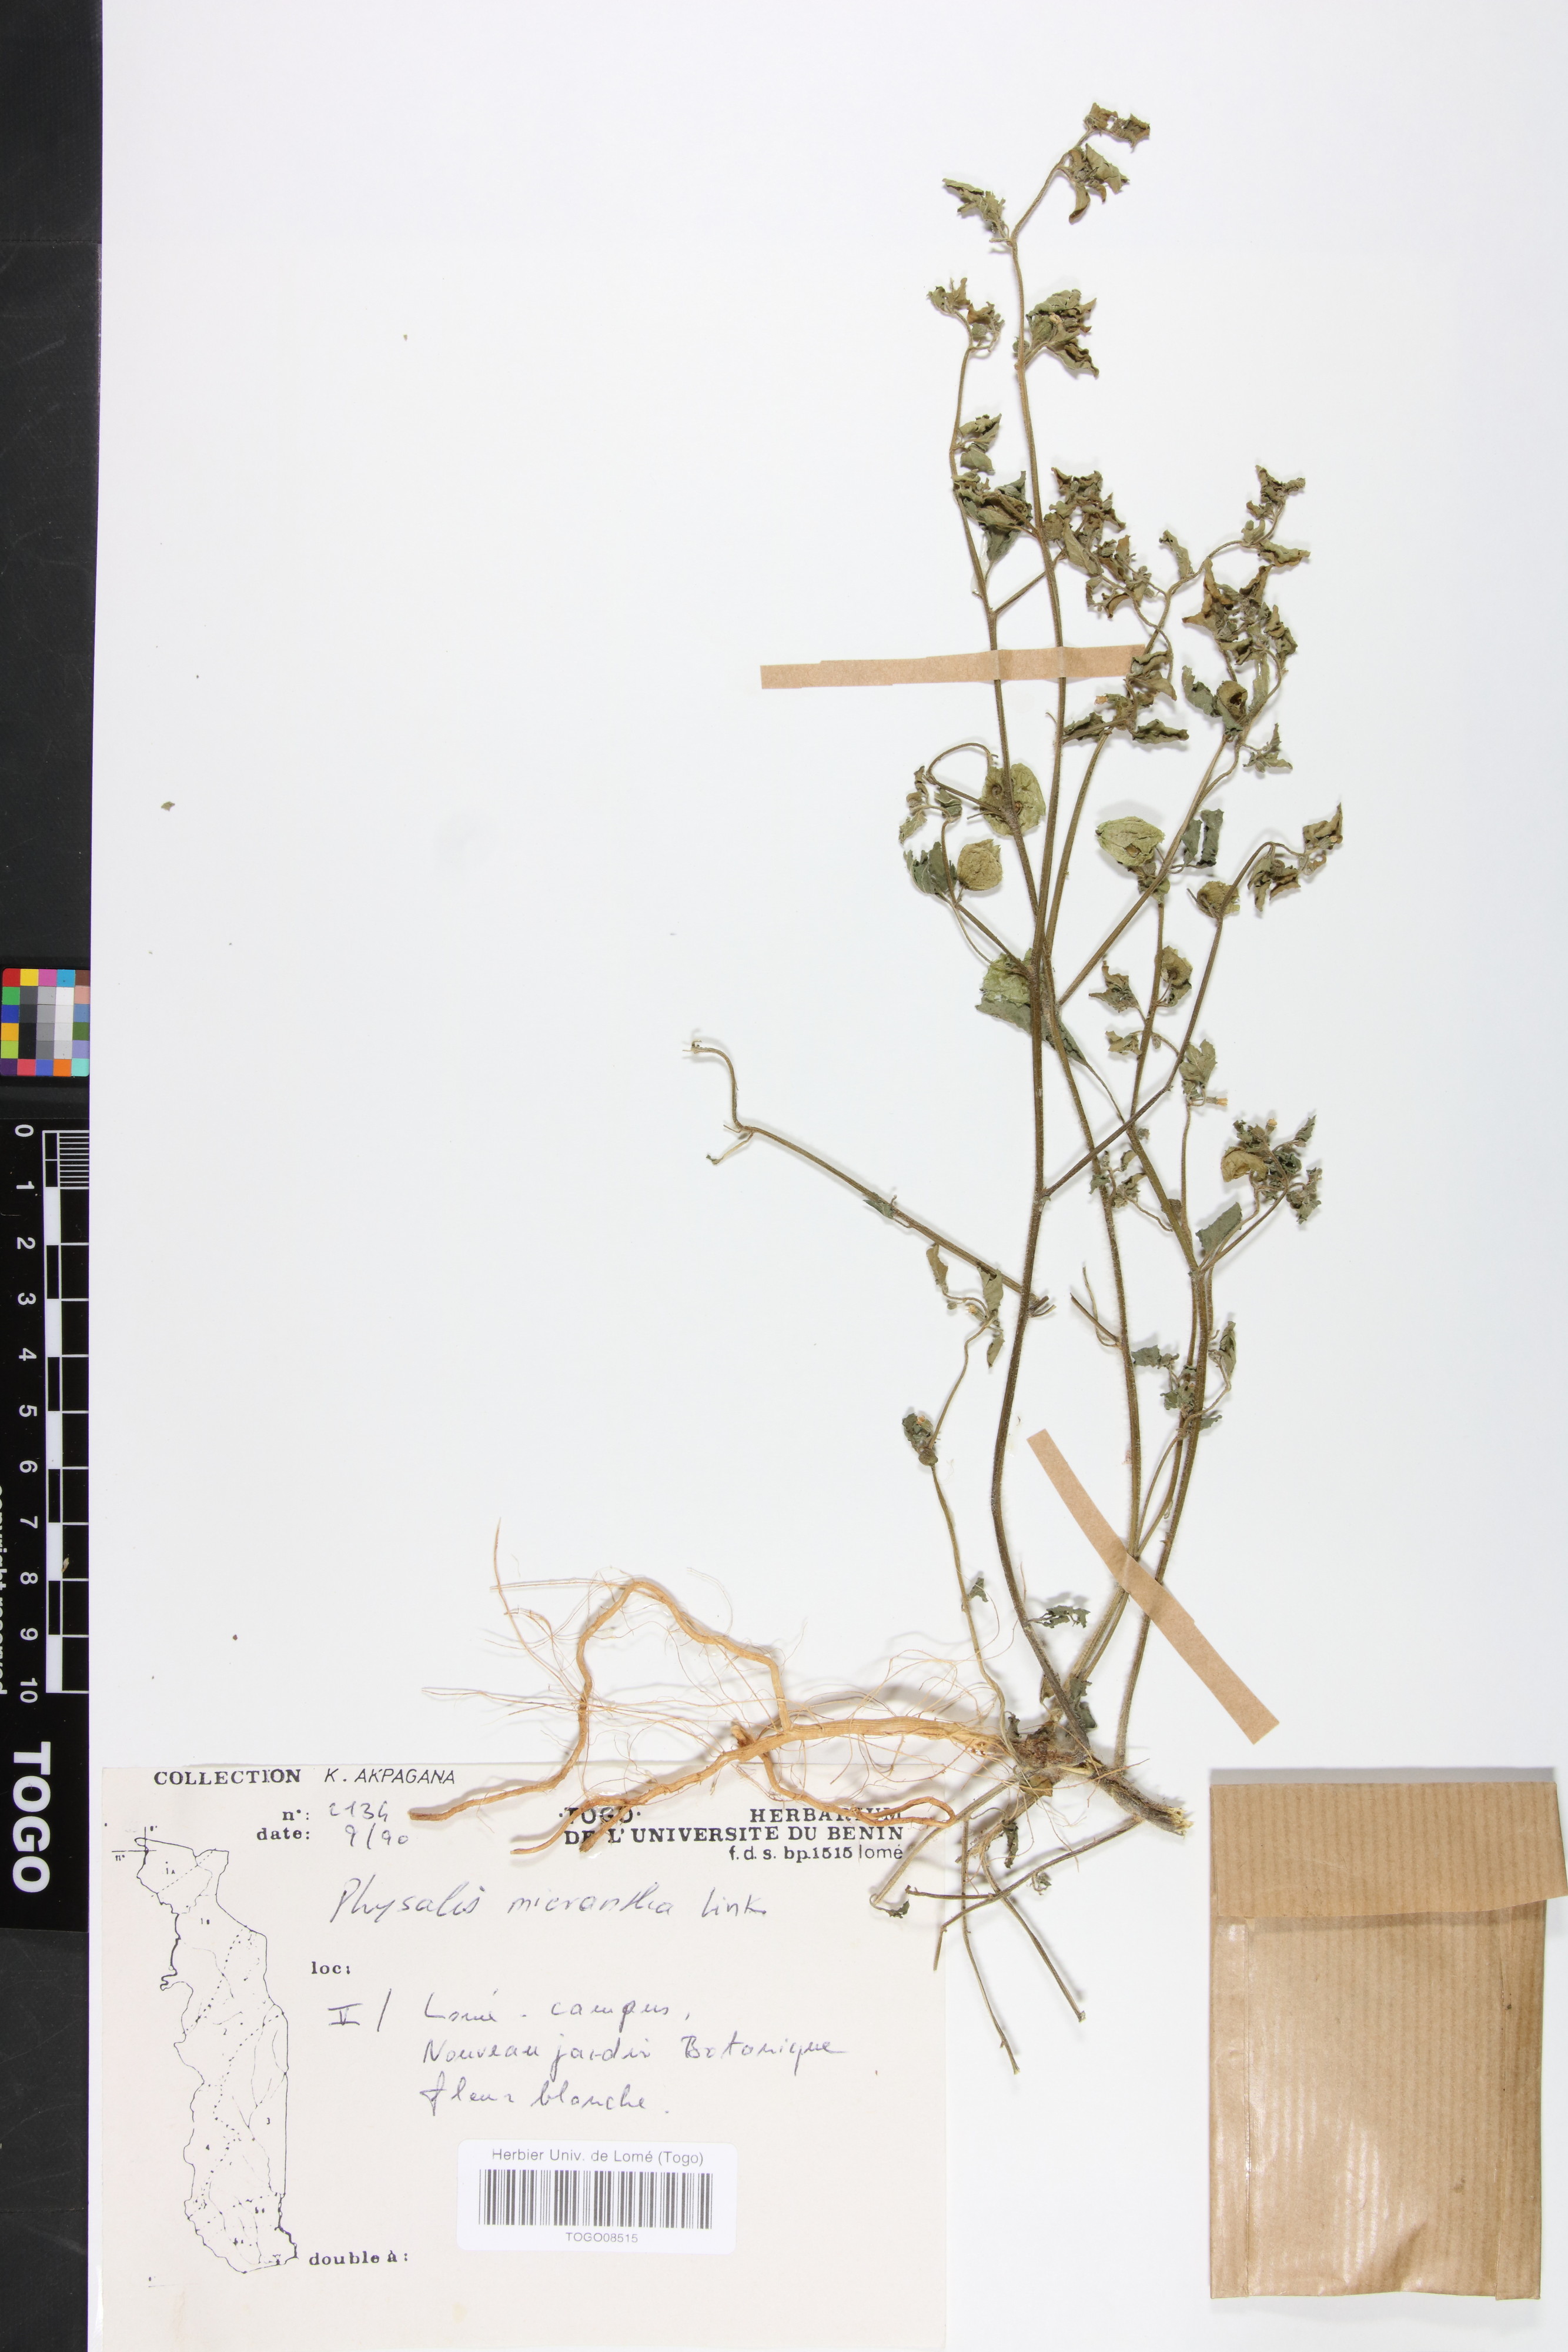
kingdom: Plantae
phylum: Tracheophyta
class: Magnoliopsida
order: Solanales
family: Solanaceae
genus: Physalis
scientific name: Physalis lagascae
